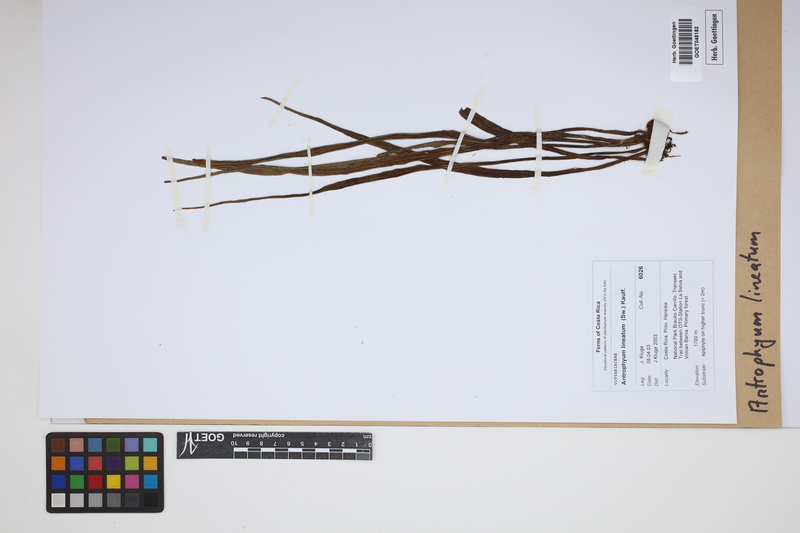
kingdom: Plantae
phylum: Tracheophyta
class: Polypodiopsida
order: Polypodiales
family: Pteridaceae
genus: Polytaenium
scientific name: Polytaenium lineatum
